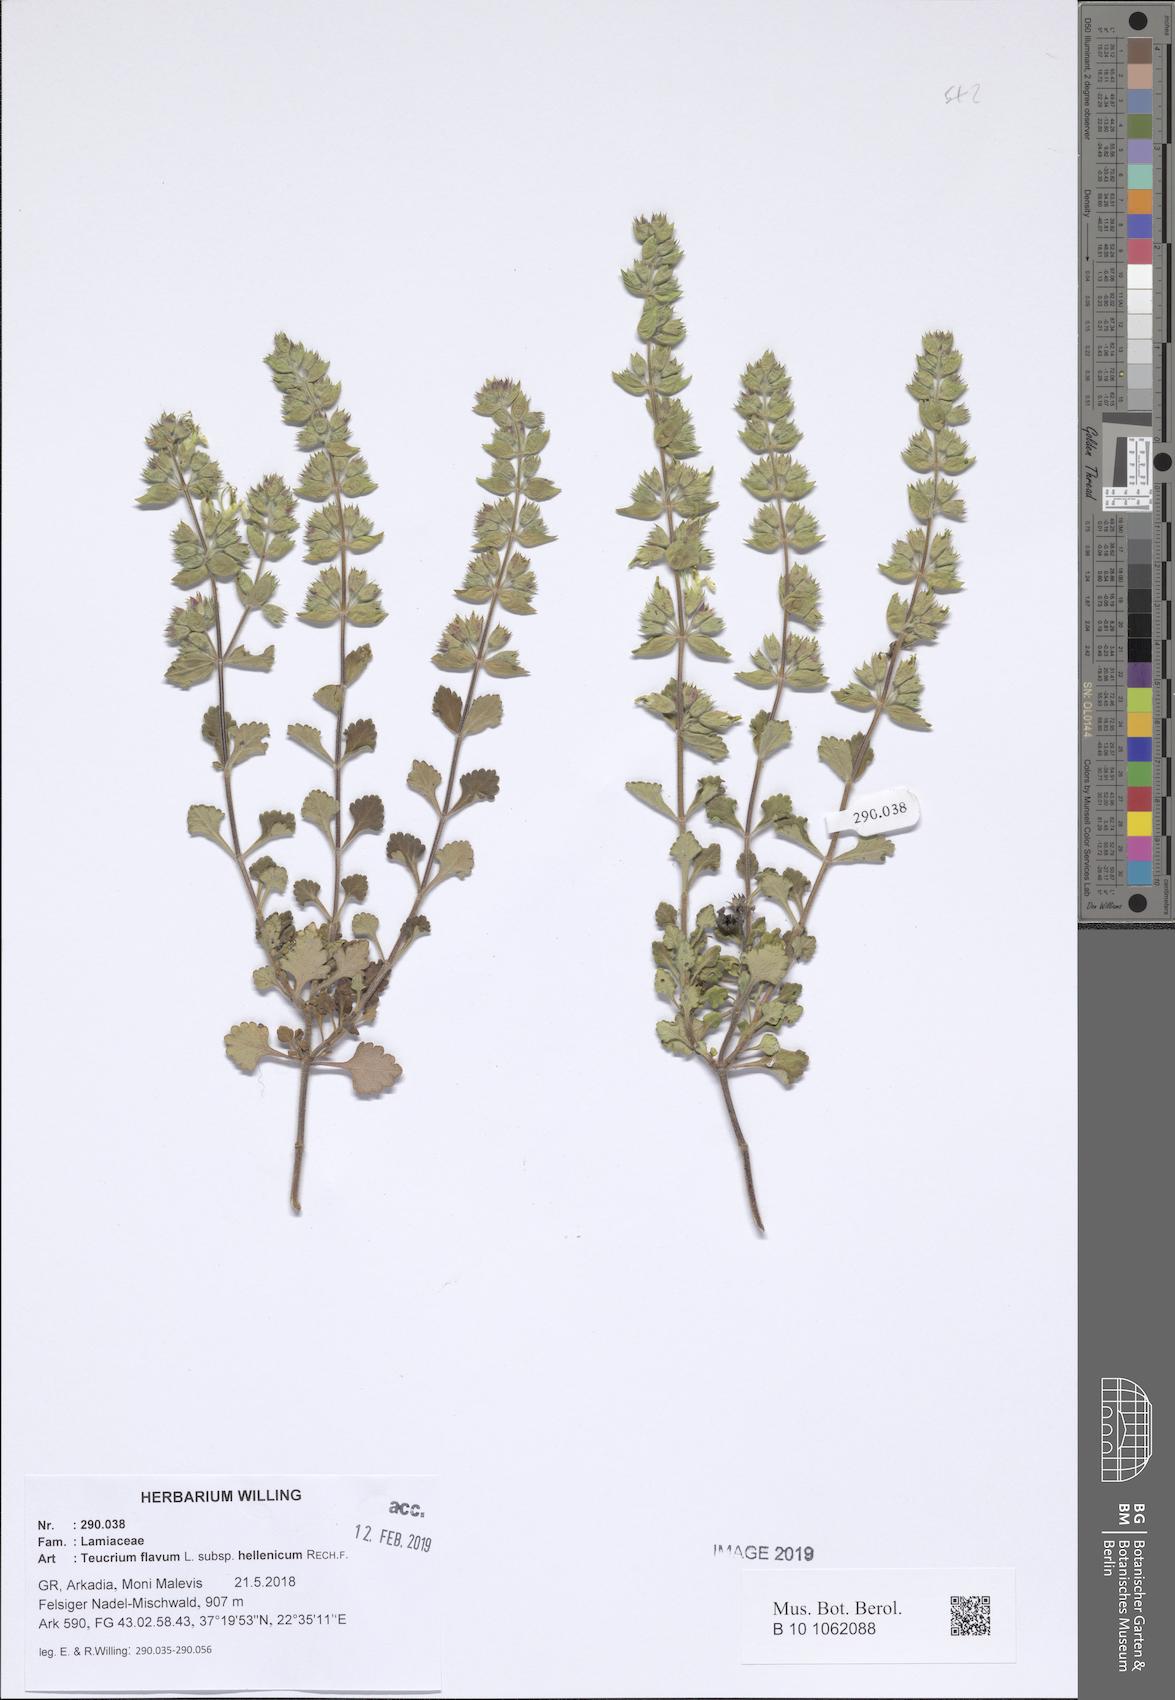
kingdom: Plantae
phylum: Tracheophyta
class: Magnoliopsida
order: Lamiales
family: Lamiaceae
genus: Teucrium
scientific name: Teucrium flavum
